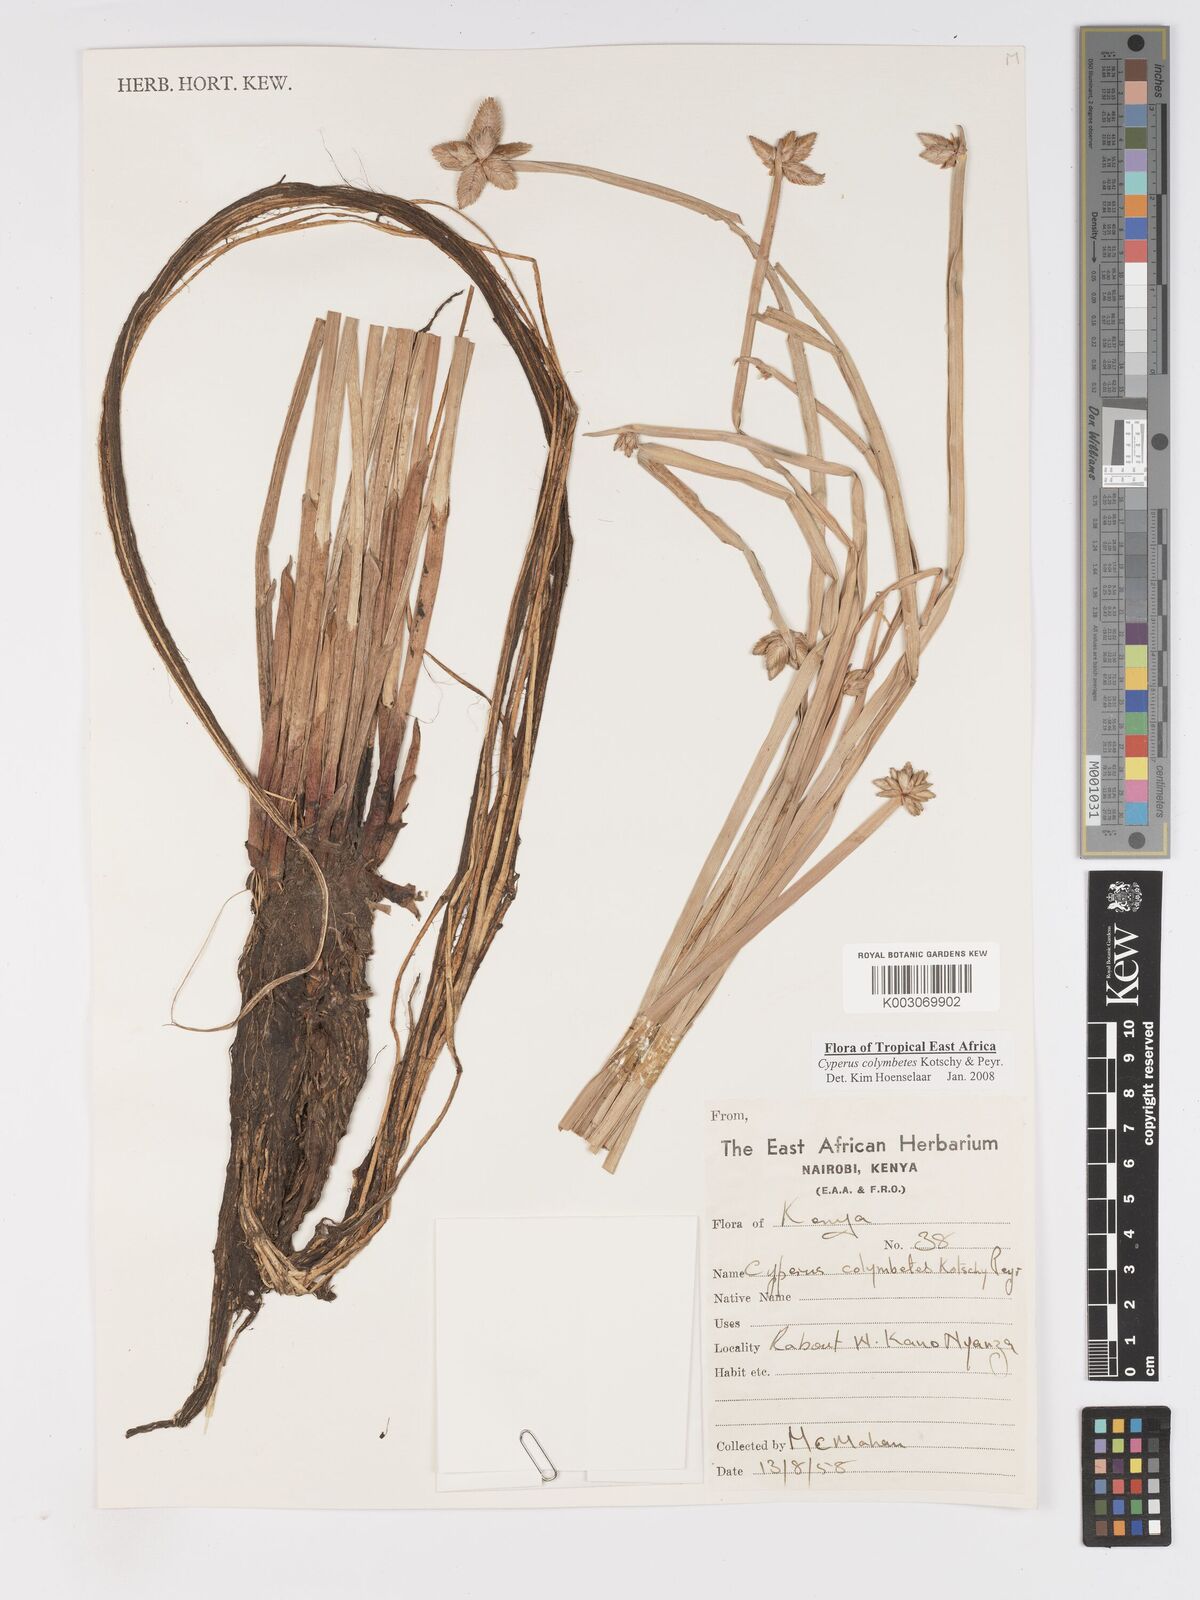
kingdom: Plantae
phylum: Tracheophyta
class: Liliopsida
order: Poales
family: Cyperaceae
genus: Cyperus
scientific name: Cyperus colymbetes
